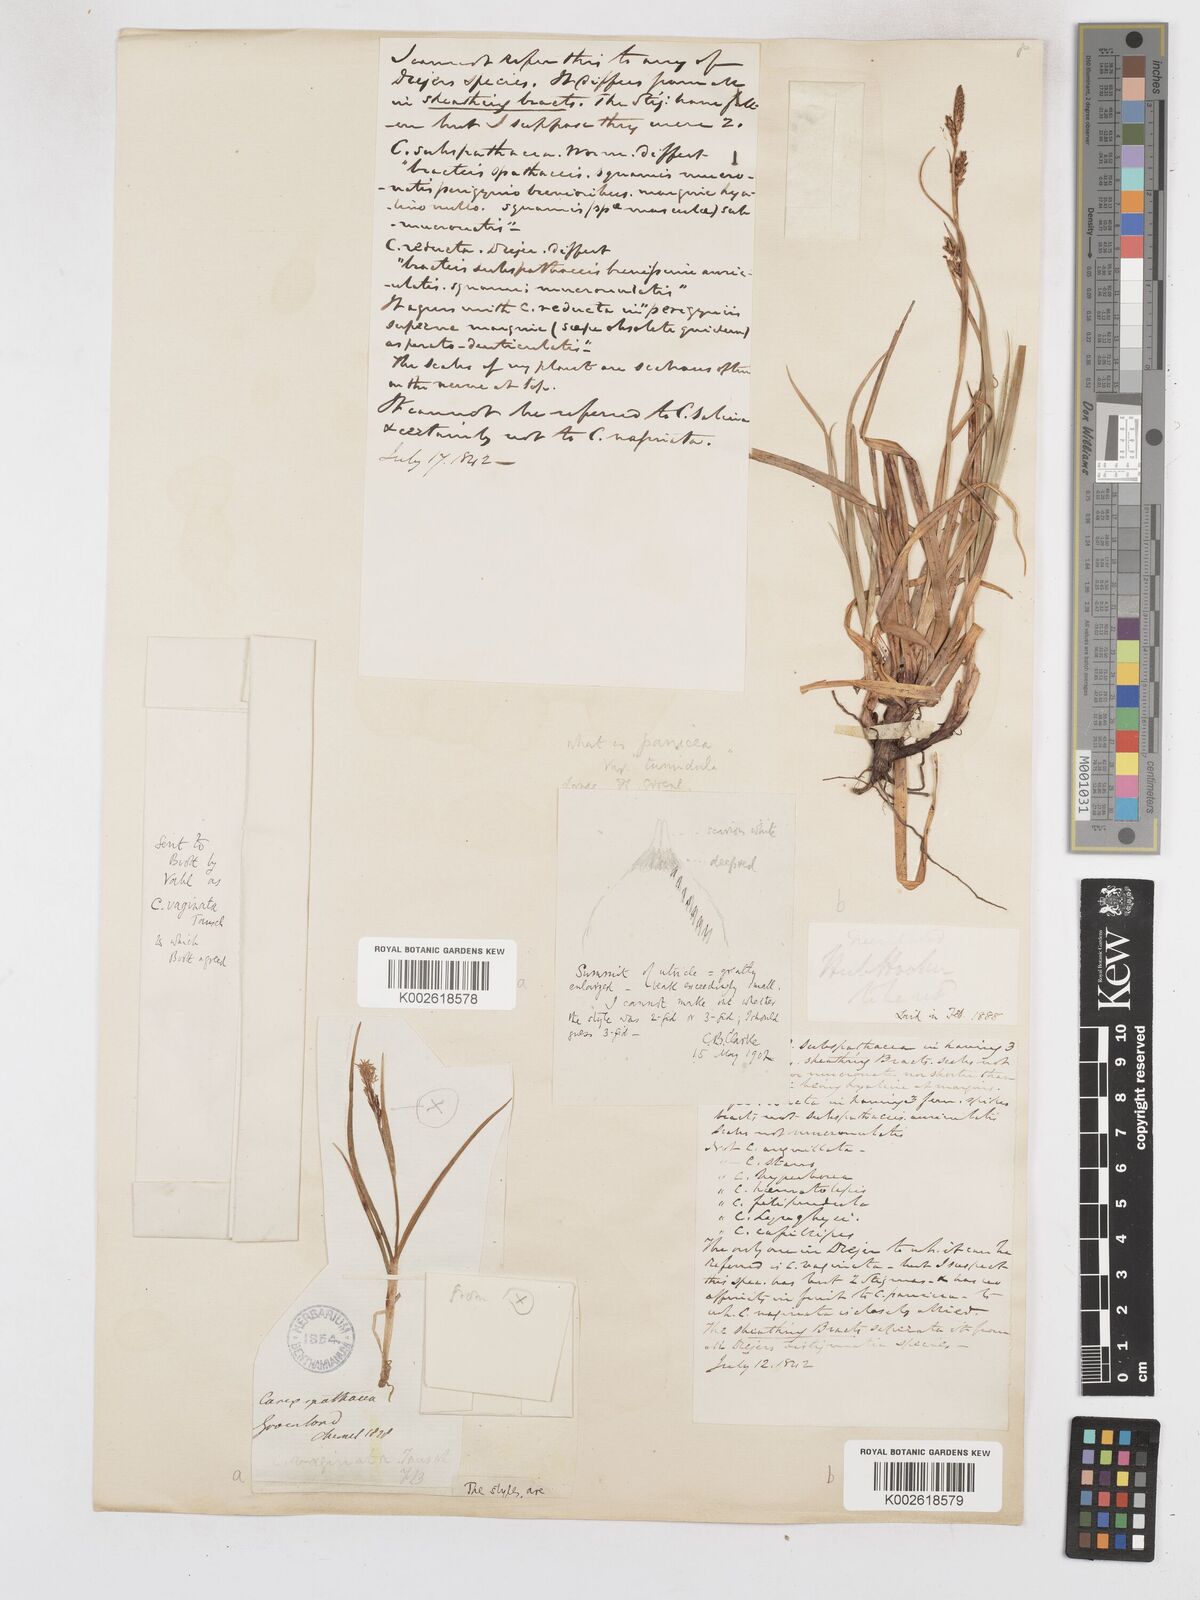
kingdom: Plantae
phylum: Tracheophyta
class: Liliopsida
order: Poales
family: Cyperaceae
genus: Carex
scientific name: Carex vaginata
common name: Sheathed sedge
